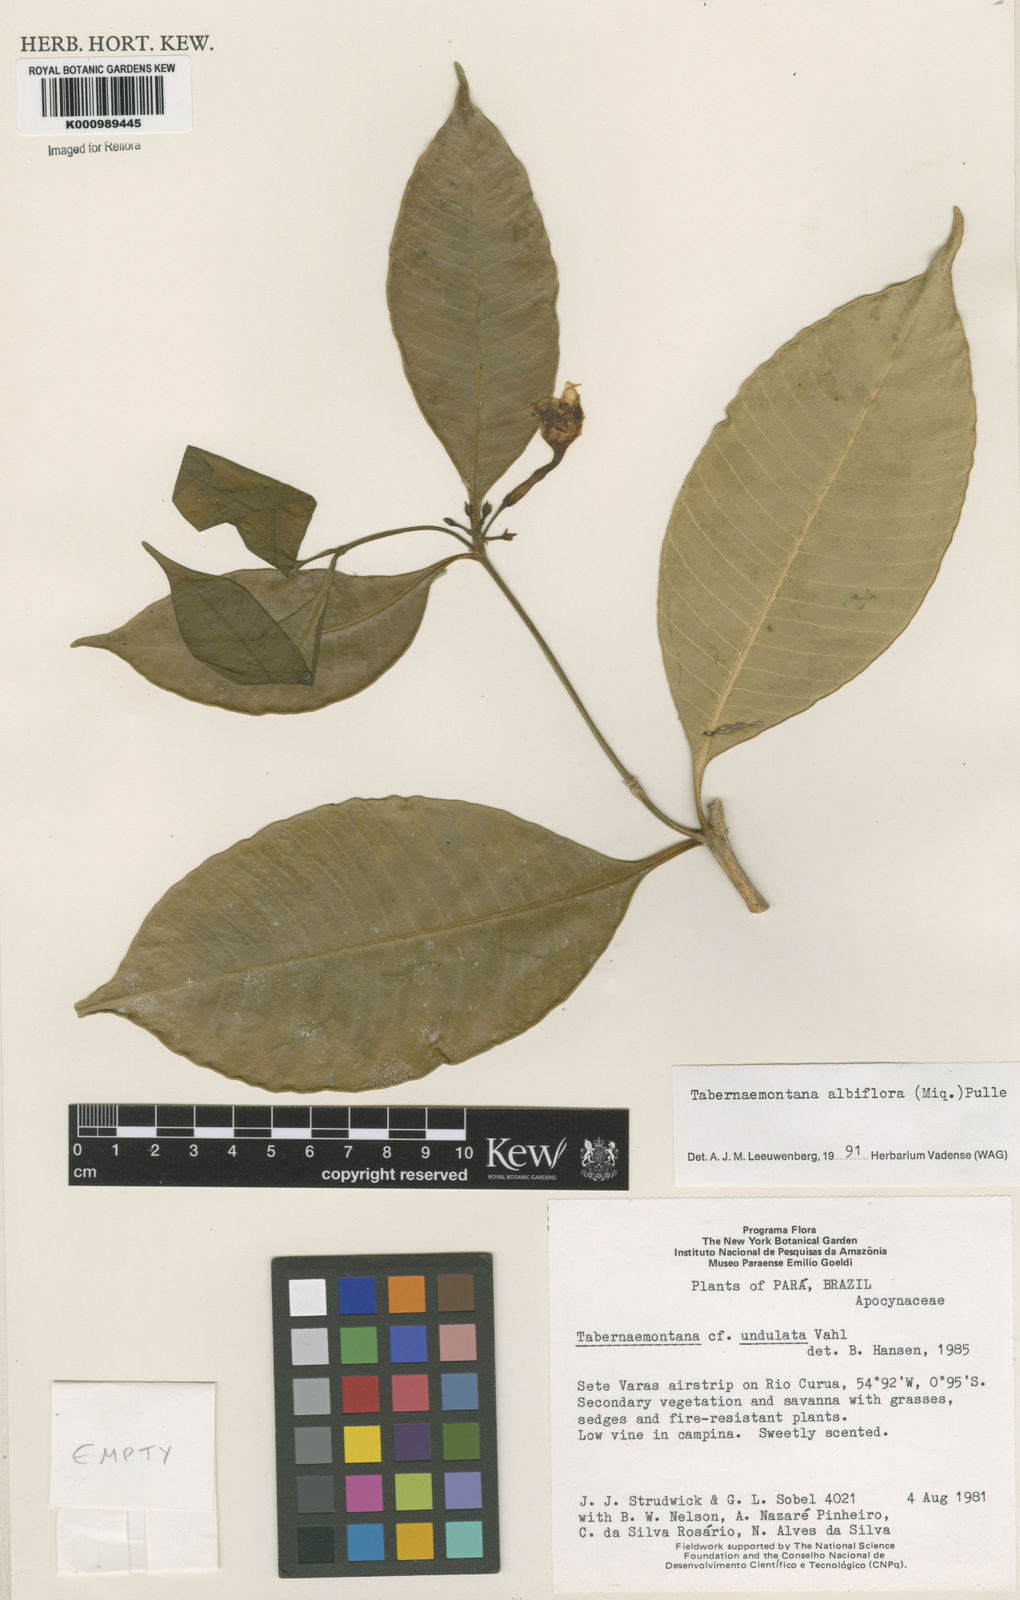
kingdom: Plantae
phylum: Tracheophyta
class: Magnoliopsida
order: Gentianales
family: Apocynaceae
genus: Tabernaemontana
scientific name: Tabernaemontana albiflora
